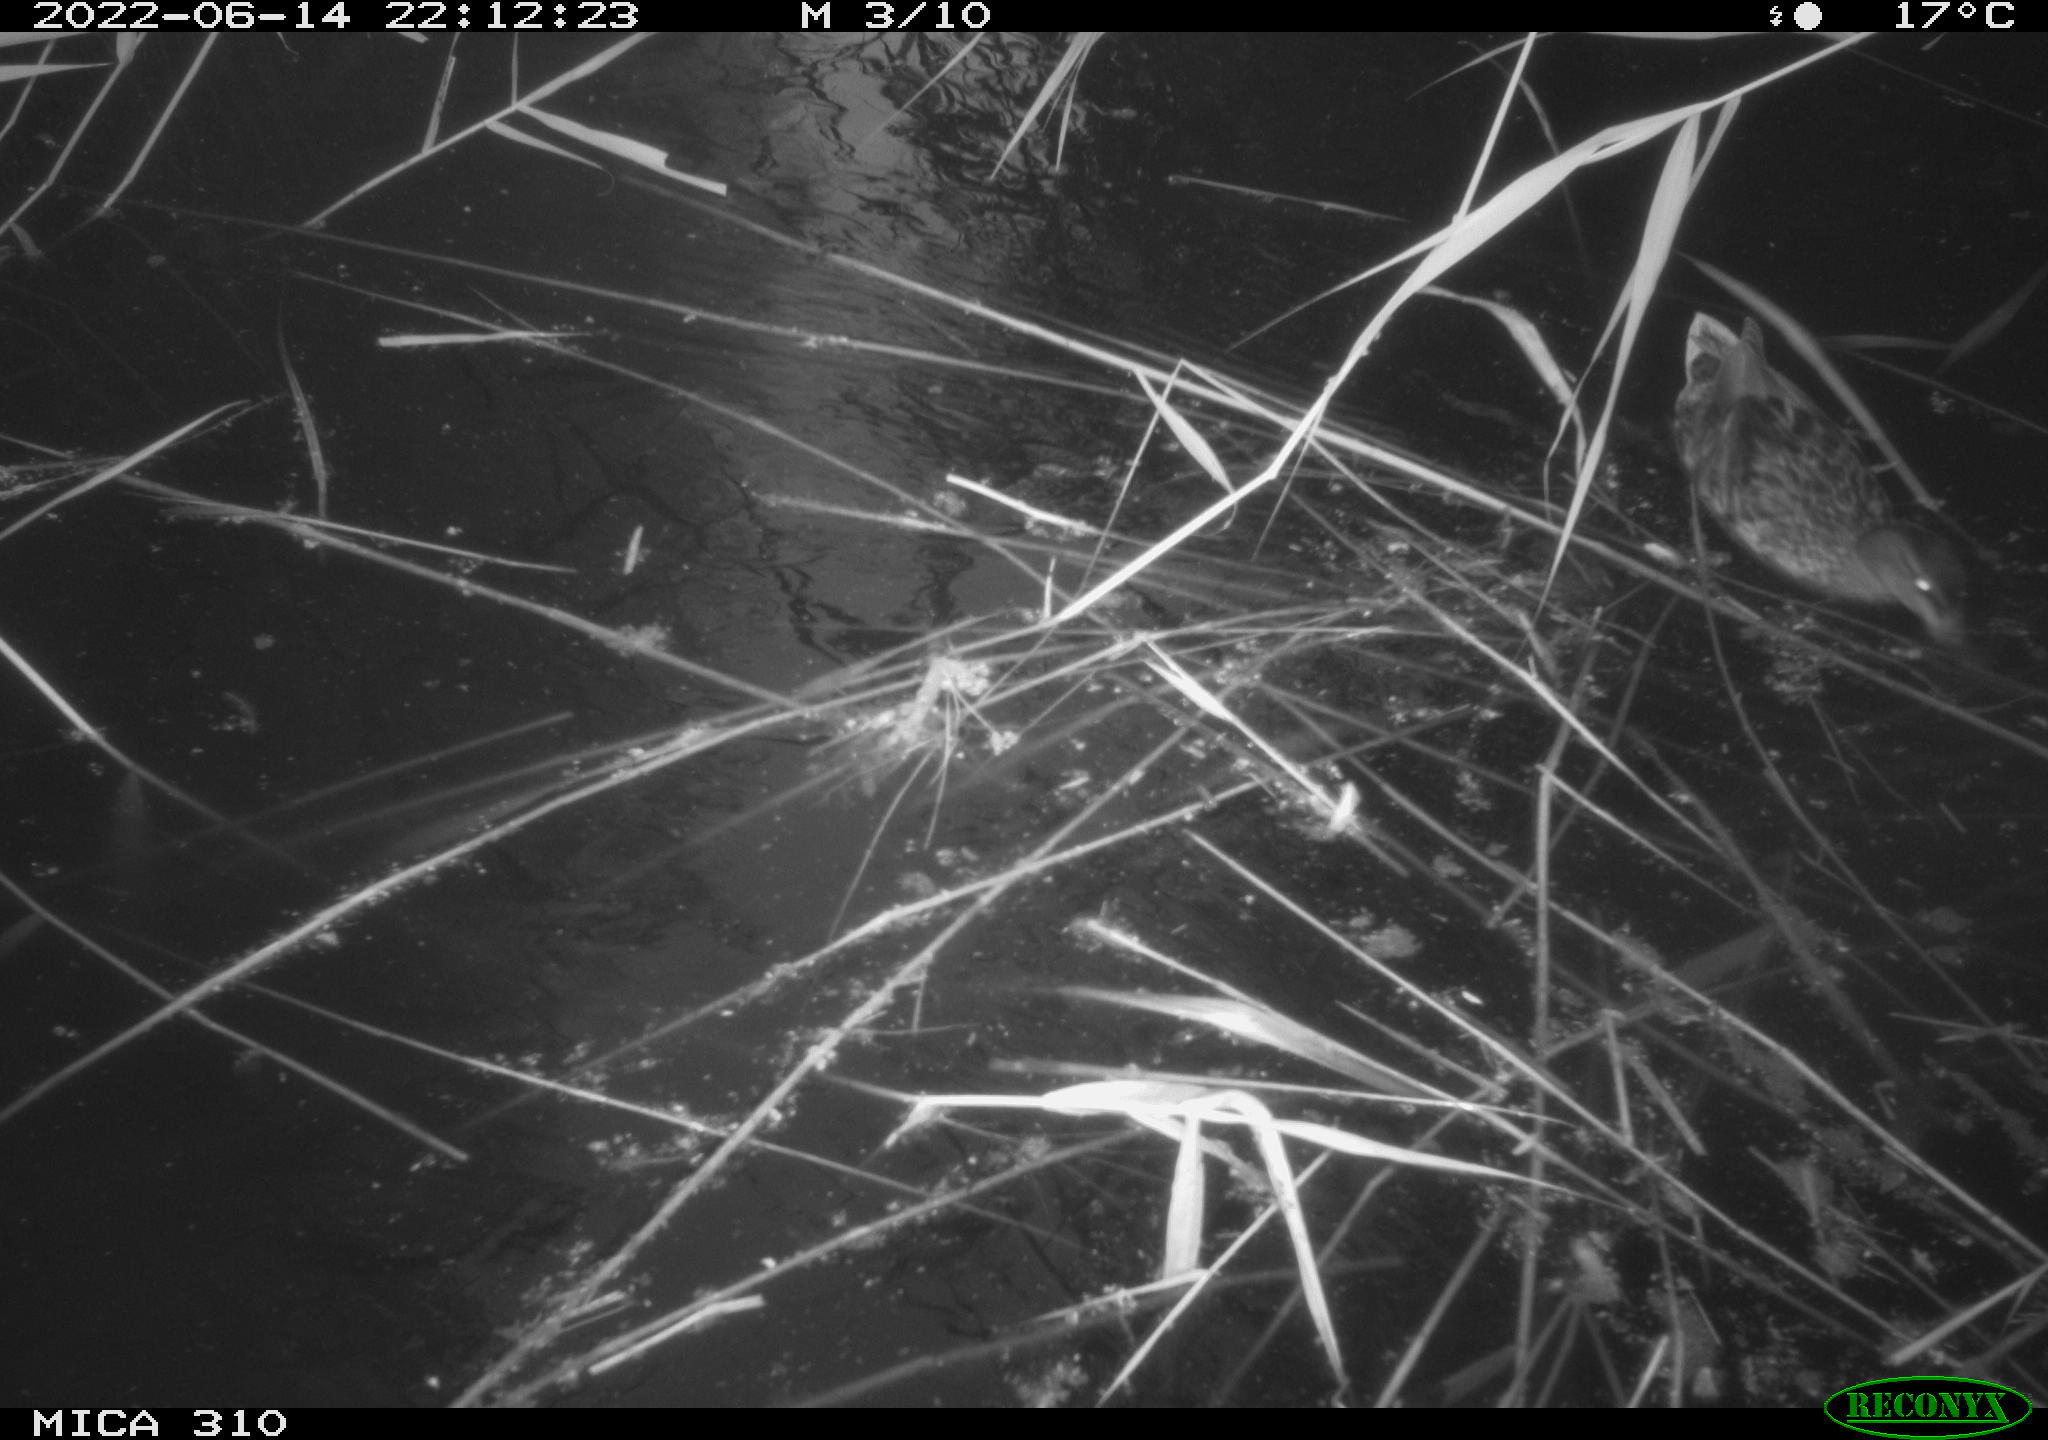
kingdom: Animalia
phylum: Chordata
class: Aves
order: Anseriformes
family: Anatidae
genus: Anas
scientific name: Anas platyrhynchos
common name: Mallard
